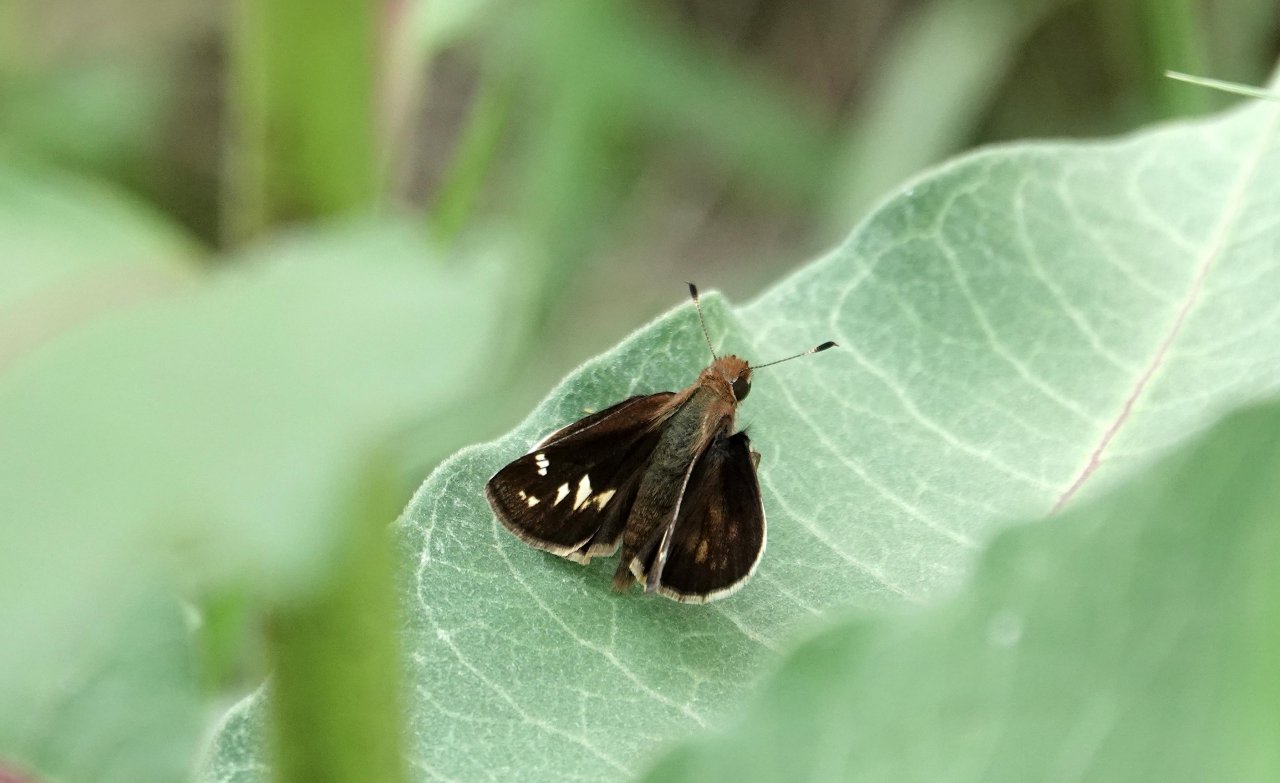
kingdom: Animalia
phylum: Arthropoda
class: Insecta
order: Lepidoptera
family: Hesperiidae
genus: Lon
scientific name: Lon zabulon
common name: Zabulon Skipper
